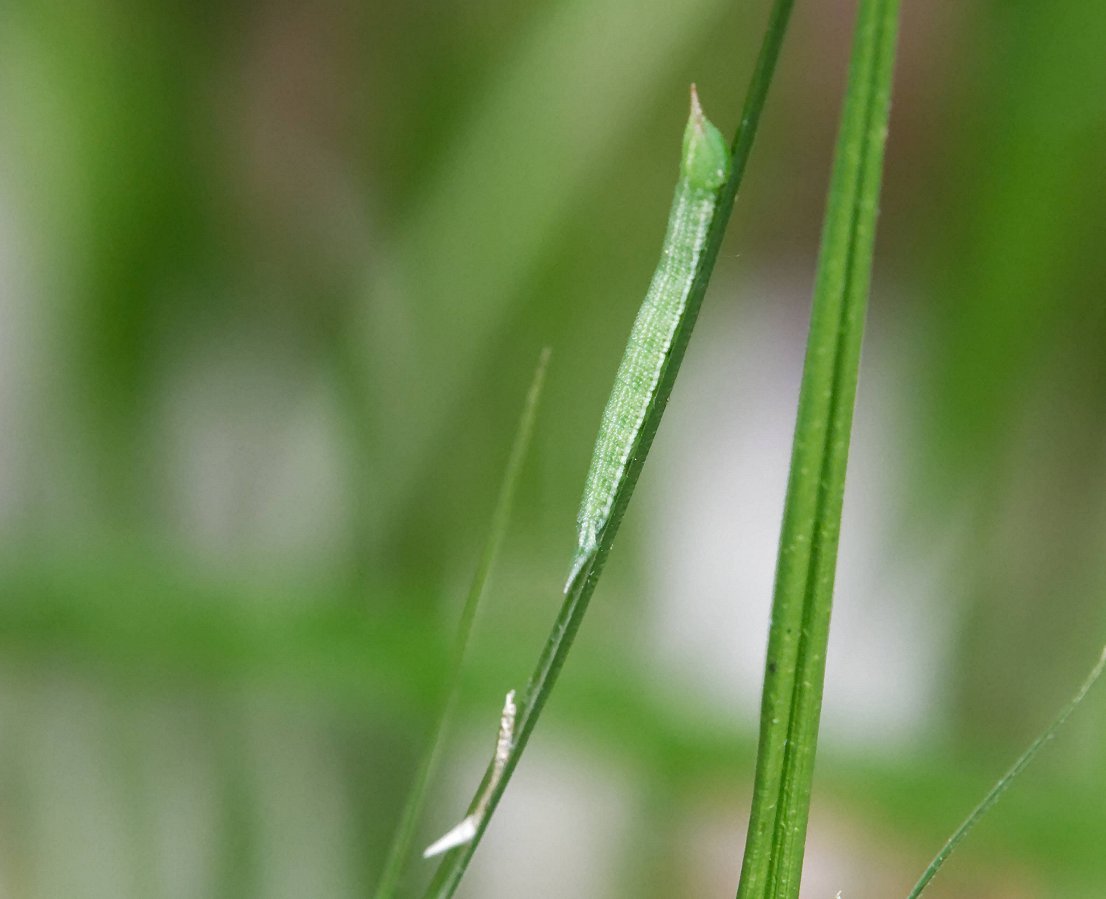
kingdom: Animalia
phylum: Arthropoda
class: Insecta
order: Lepidoptera
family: Nymphalidae
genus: Lethe
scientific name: Lethe eurydice
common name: Appalachian Eyed Brown
